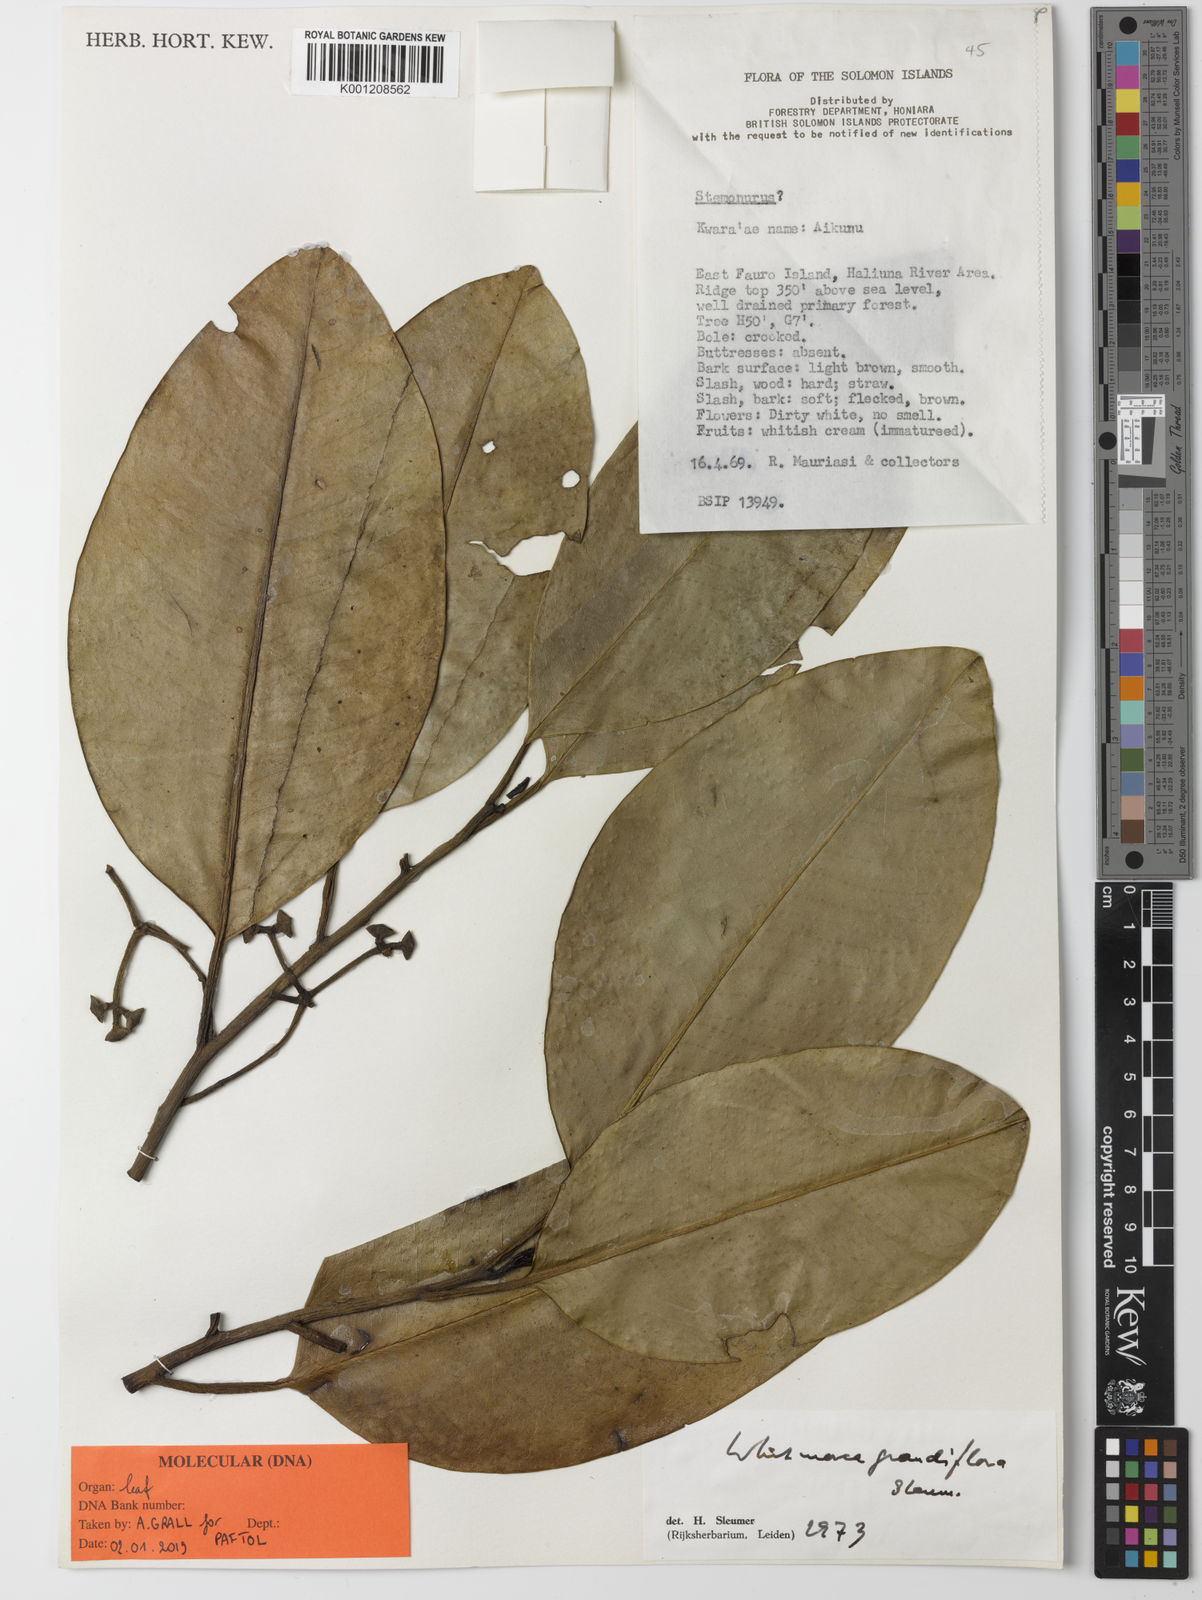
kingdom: Plantae
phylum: Tracheophyta
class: Magnoliopsida
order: Cardiopteridales
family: Stemonuraceae
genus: Whitmorea
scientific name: Whitmorea grandiflora
